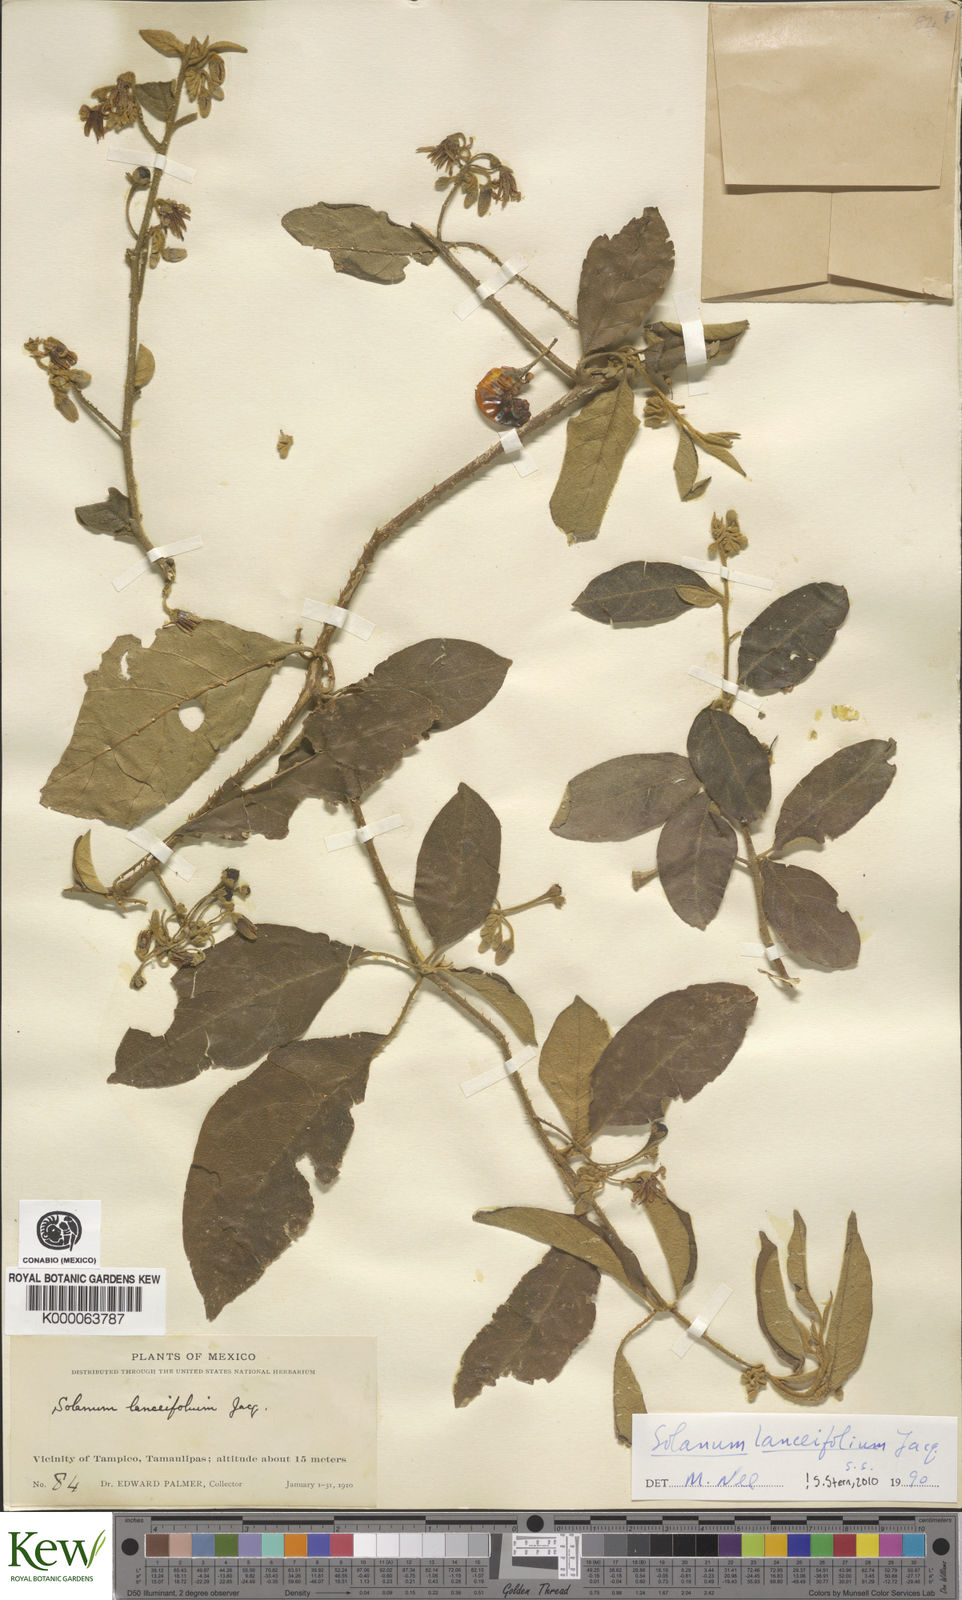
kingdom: Plantae
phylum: Tracheophyta
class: Magnoliopsida
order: Solanales
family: Solanaceae
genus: Solanum
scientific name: Solanum lanceifolium
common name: Lanceleaf nightshade
